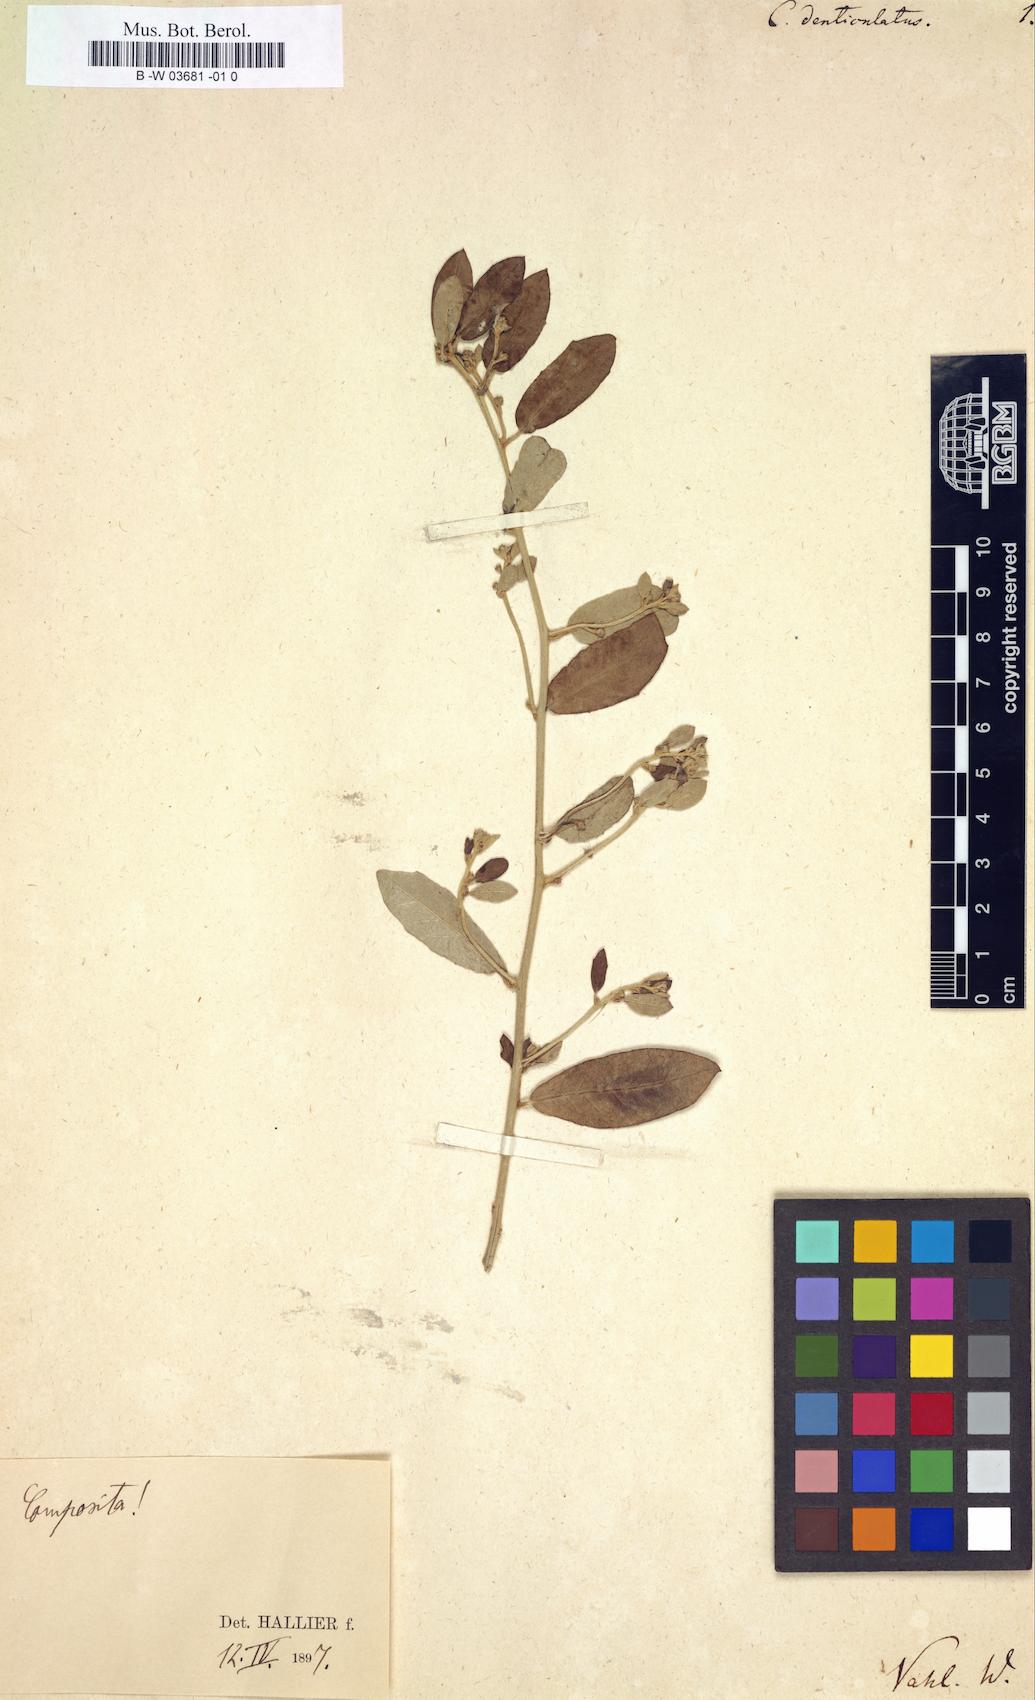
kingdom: Plantae
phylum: Tracheophyta
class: Magnoliopsida
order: Solanales
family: Convolvulaceae
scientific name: Convolvulaceae
